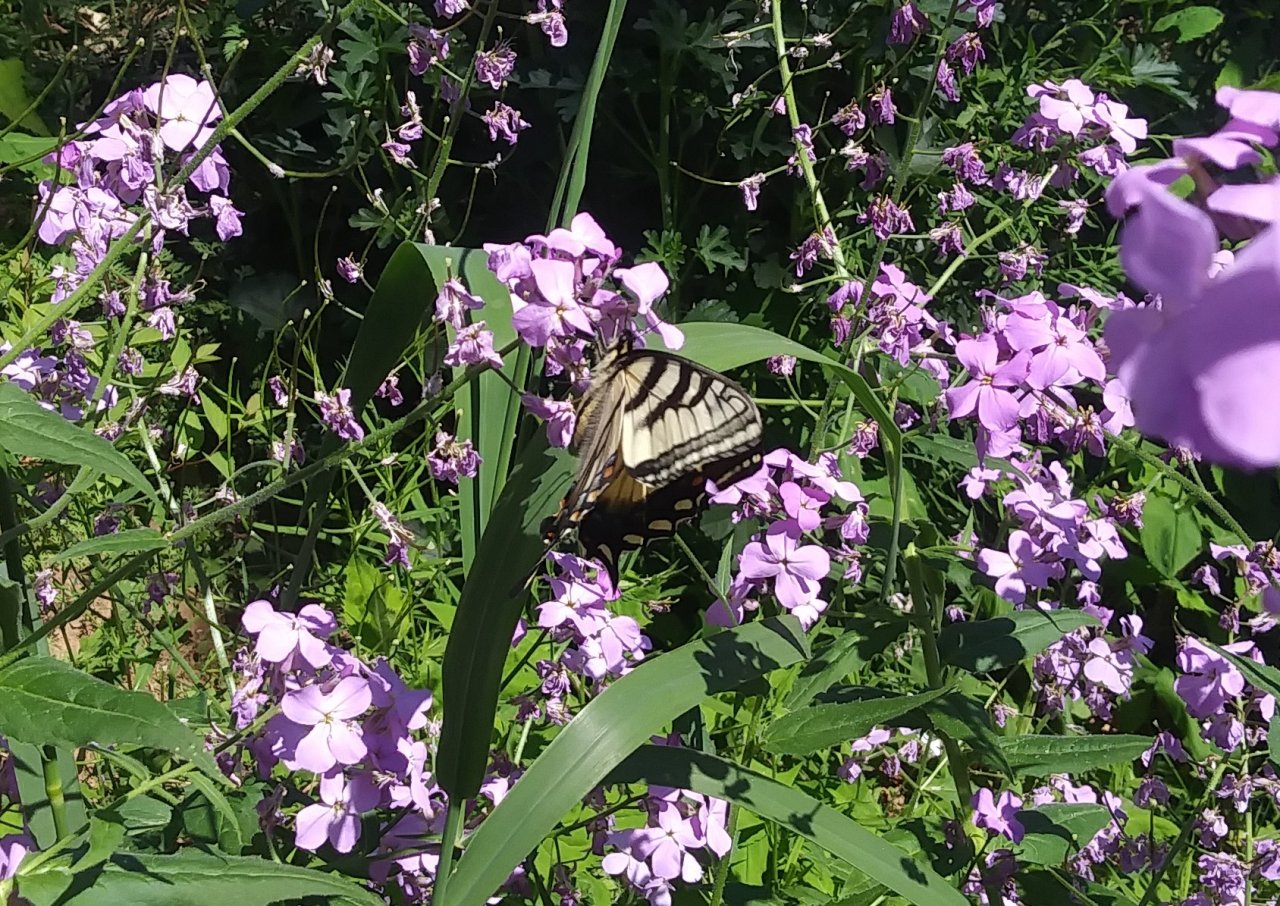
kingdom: Animalia
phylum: Arthropoda
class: Insecta
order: Lepidoptera
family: Papilionidae
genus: Pterourus
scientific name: Pterourus canadensis
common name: Canadian Tiger Swallowtail
